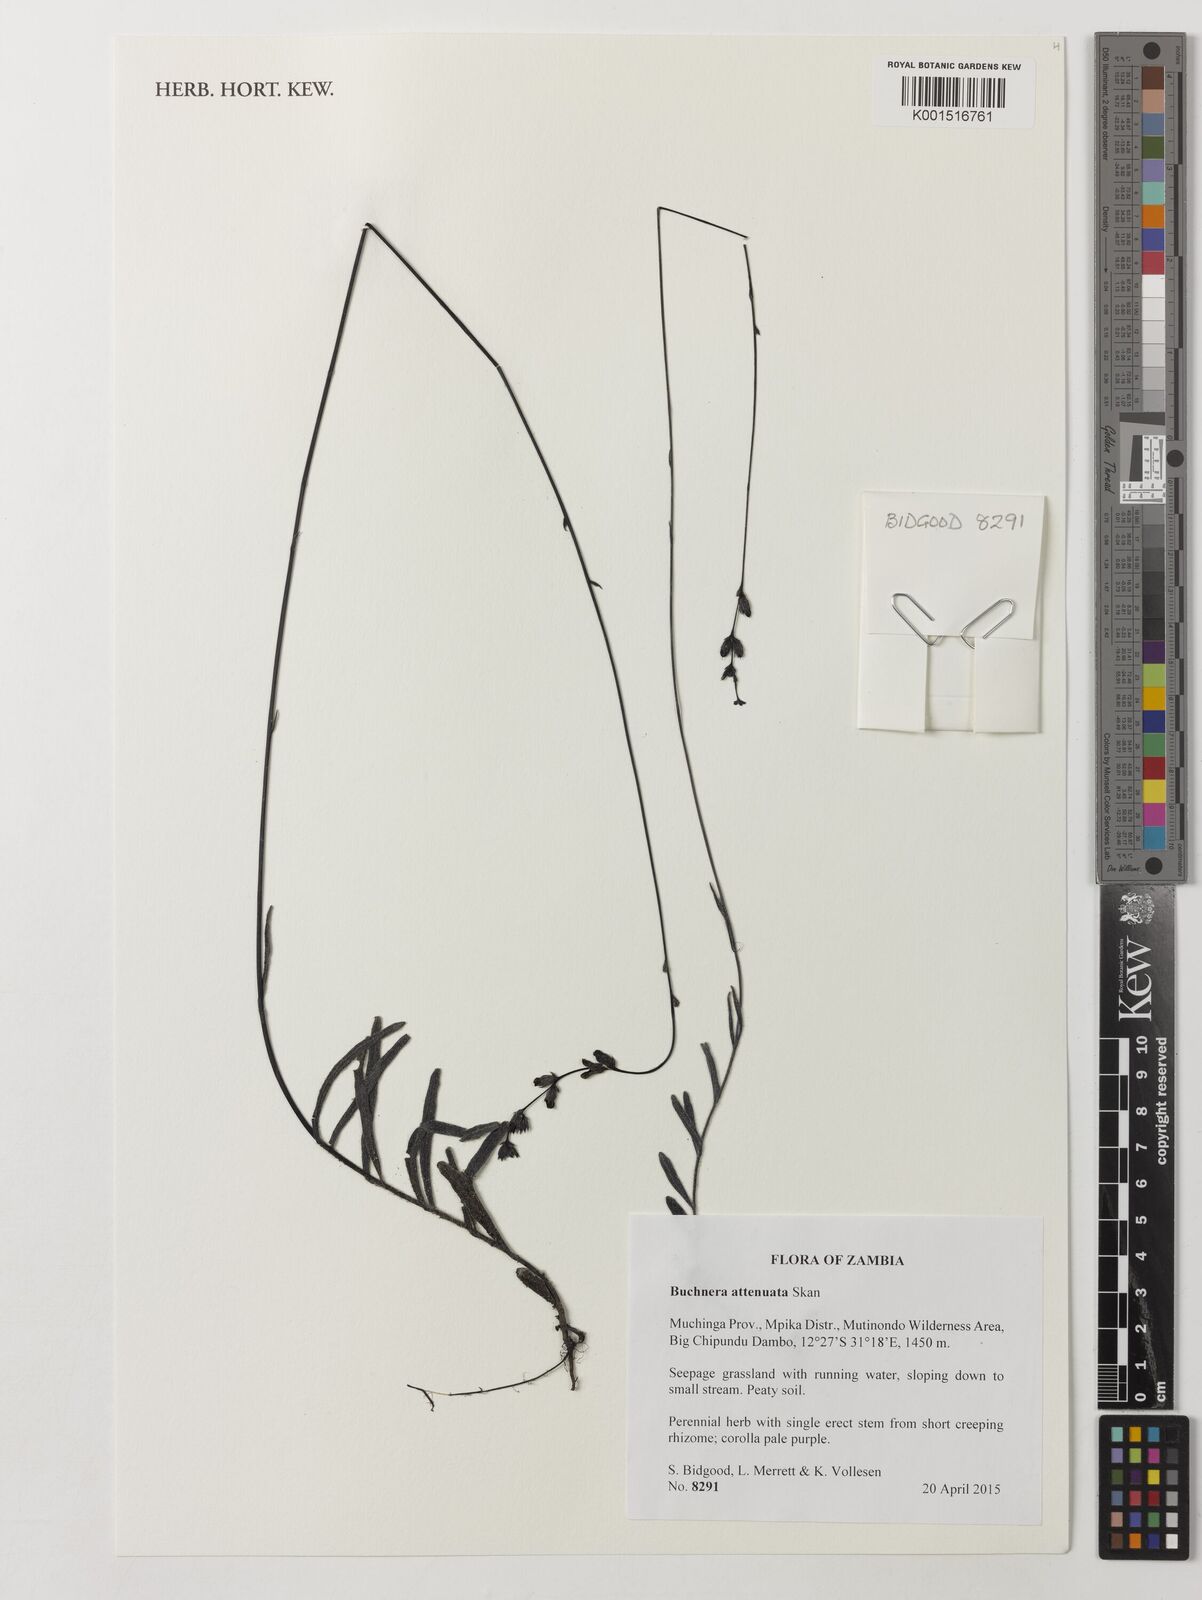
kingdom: Plantae
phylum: Tracheophyta
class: Magnoliopsida
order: Lamiales
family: Orobanchaceae
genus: Buchnera
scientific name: Buchnera attenuata
